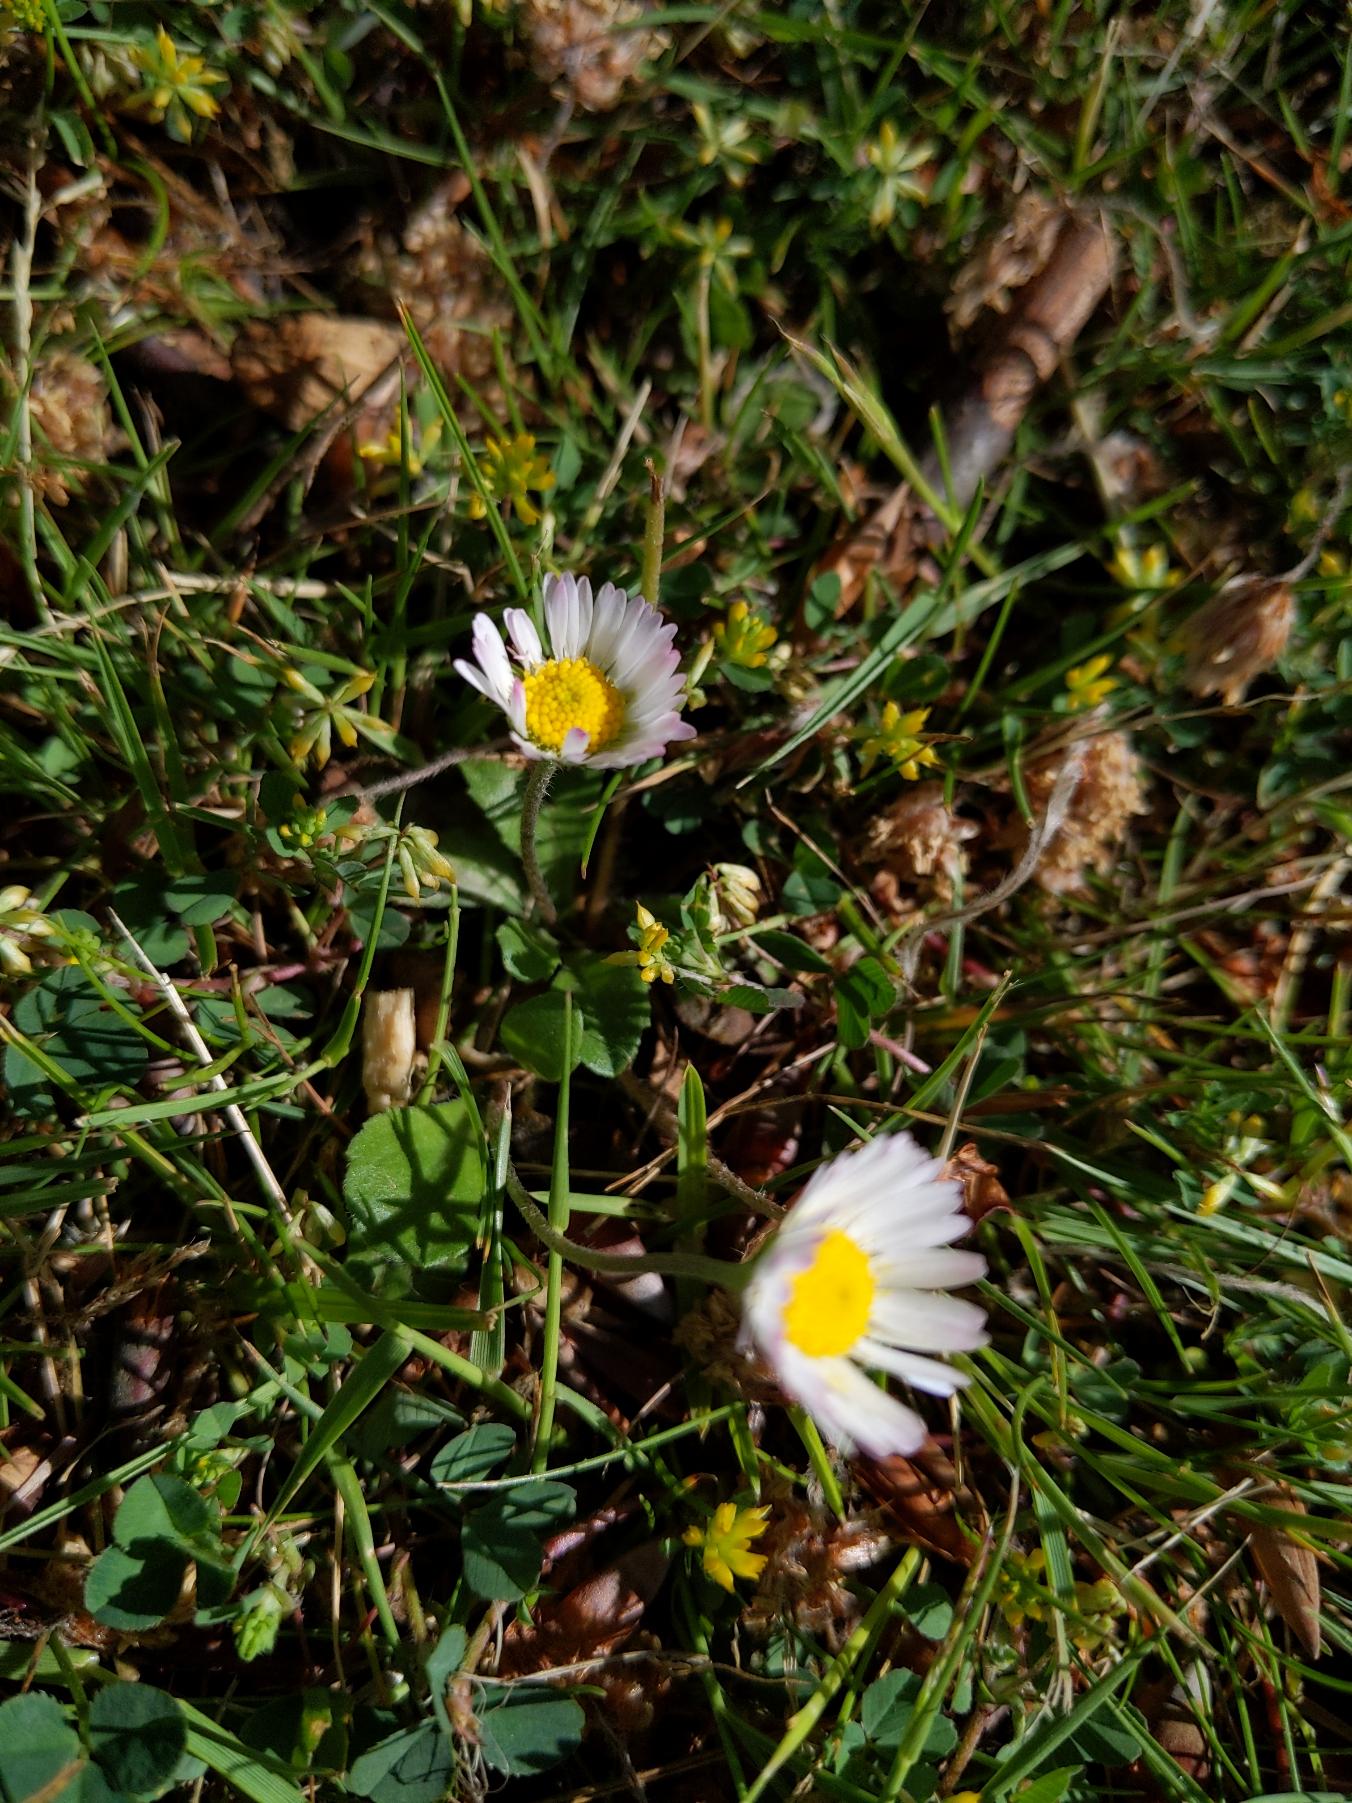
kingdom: Plantae
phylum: Tracheophyta
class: Magnoliopsida
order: Asterales
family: Asteraceae
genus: Bellis
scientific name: Bellis perennis
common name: Tusindfryd
